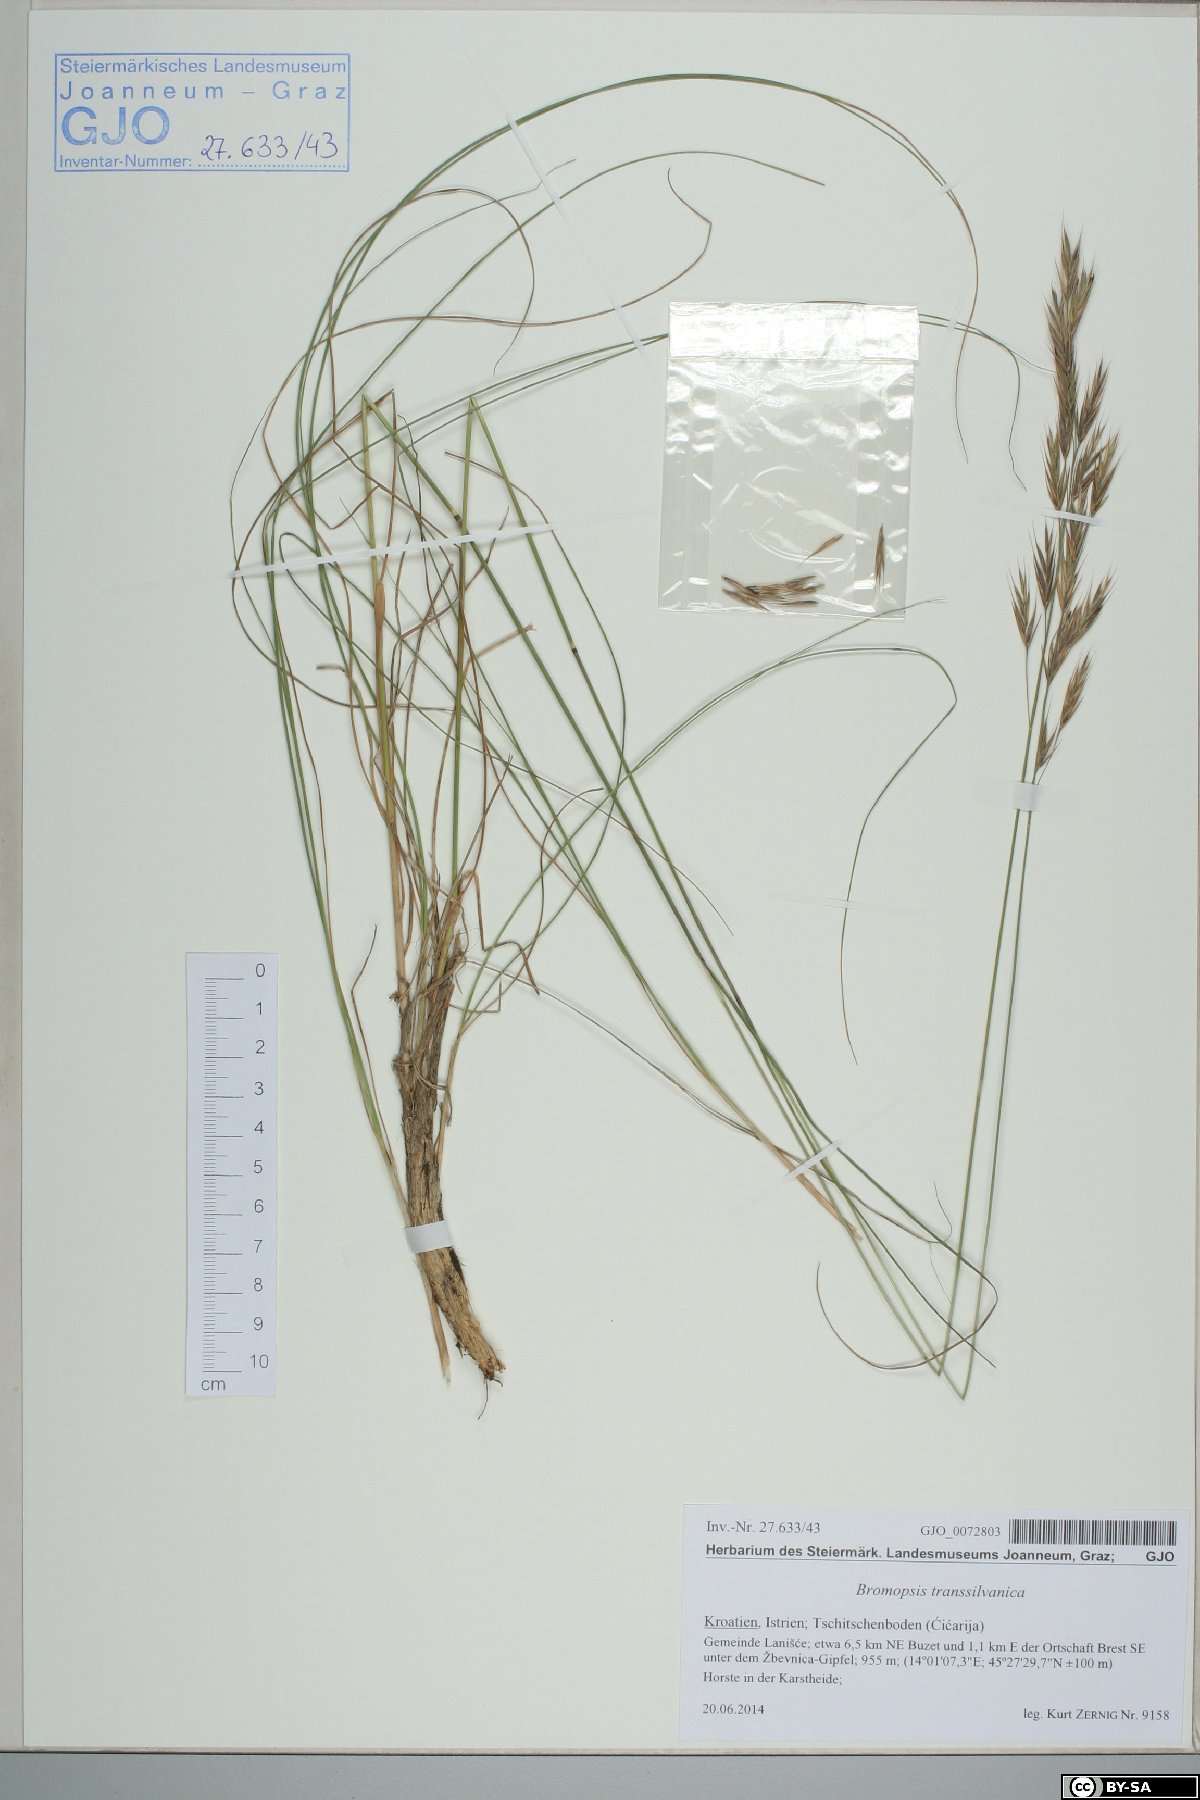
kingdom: Plantae
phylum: Tracheophyta
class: Liliopsida
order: Poales
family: Poaceae
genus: Bromus
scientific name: Bromus erectus
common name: Erect brome
